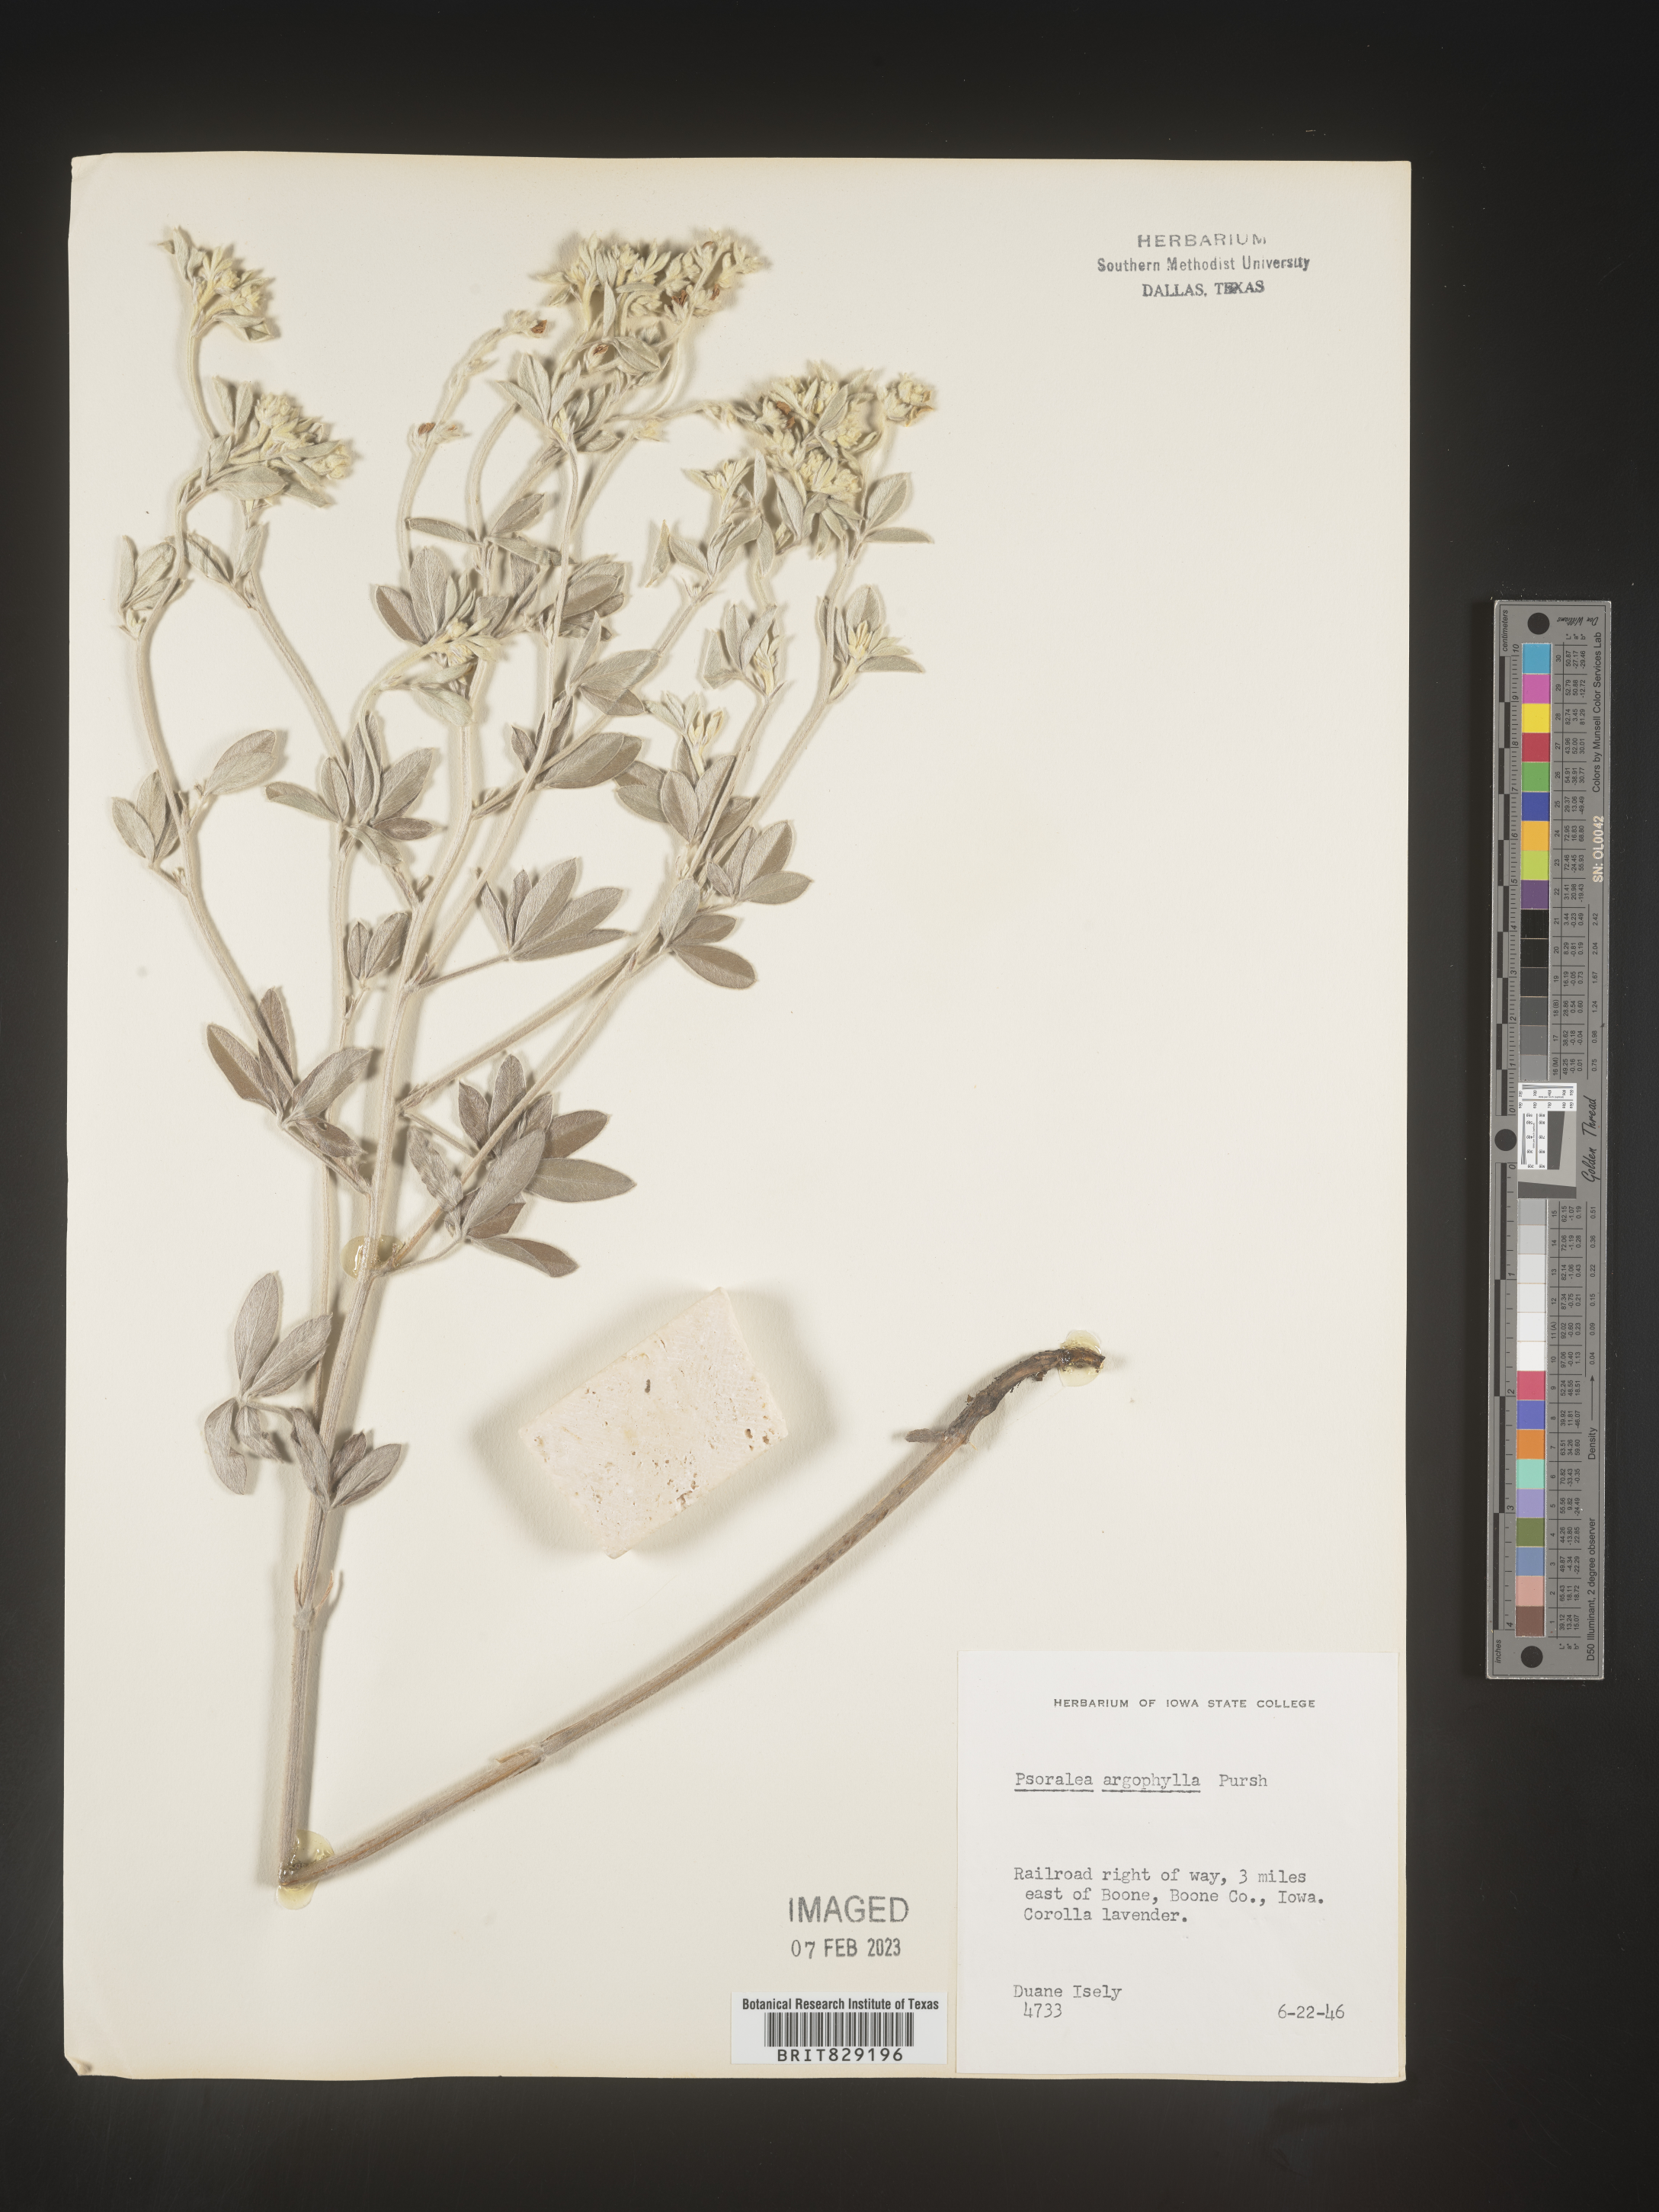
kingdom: Plantae
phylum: Tracheophyta
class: Magnoliopsida
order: Fabales
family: Fabaceae
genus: Pediomelum
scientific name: Pediomelum argophyllum
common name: Silver-leaved indian breadroot
